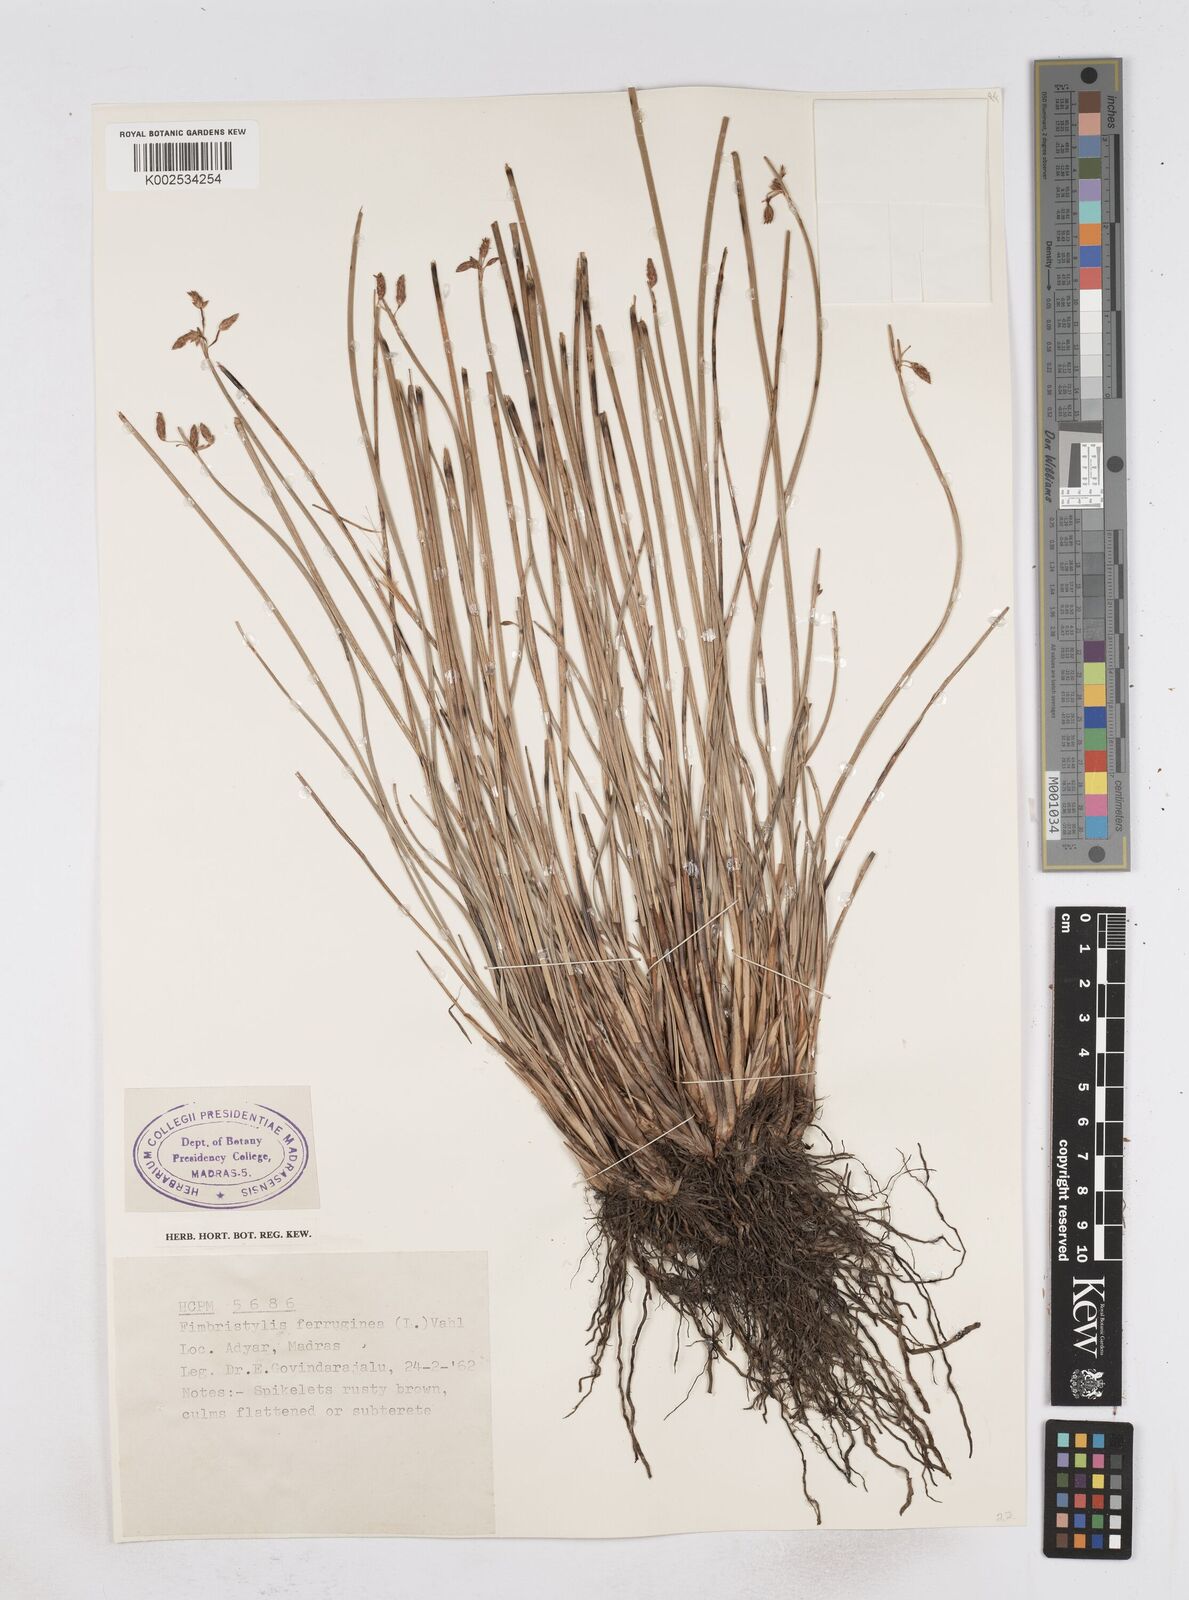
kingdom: Plantae
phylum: Tracheophyta
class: Liliopsida
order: Poales
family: Cyperaceae
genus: Fimbristylis
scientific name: Fimbristylis ferruginea
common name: West indian fimbry
